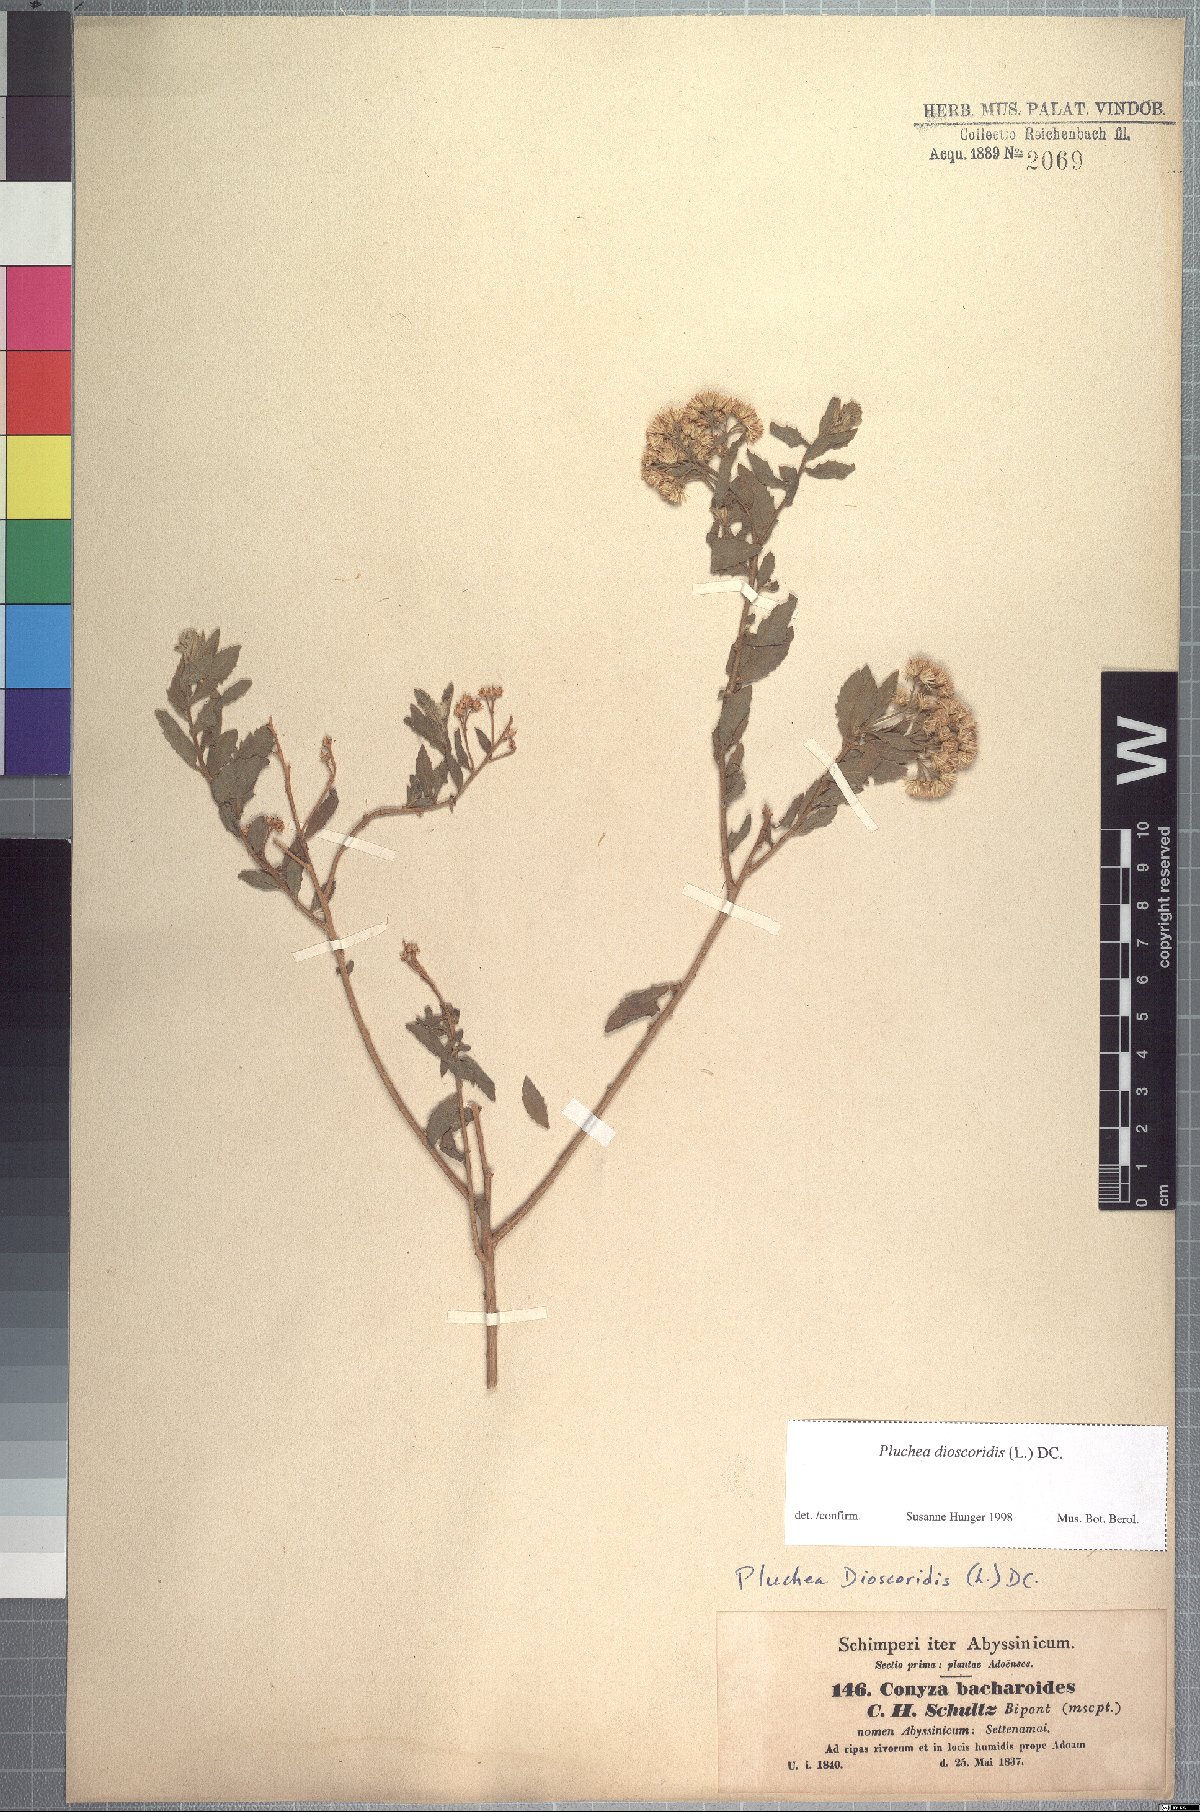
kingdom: Plantae
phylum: Tracheophyta
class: Magnoliopsida
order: Asterales
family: Asteraceae
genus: Pluchea
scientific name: Pluchea bojeri
